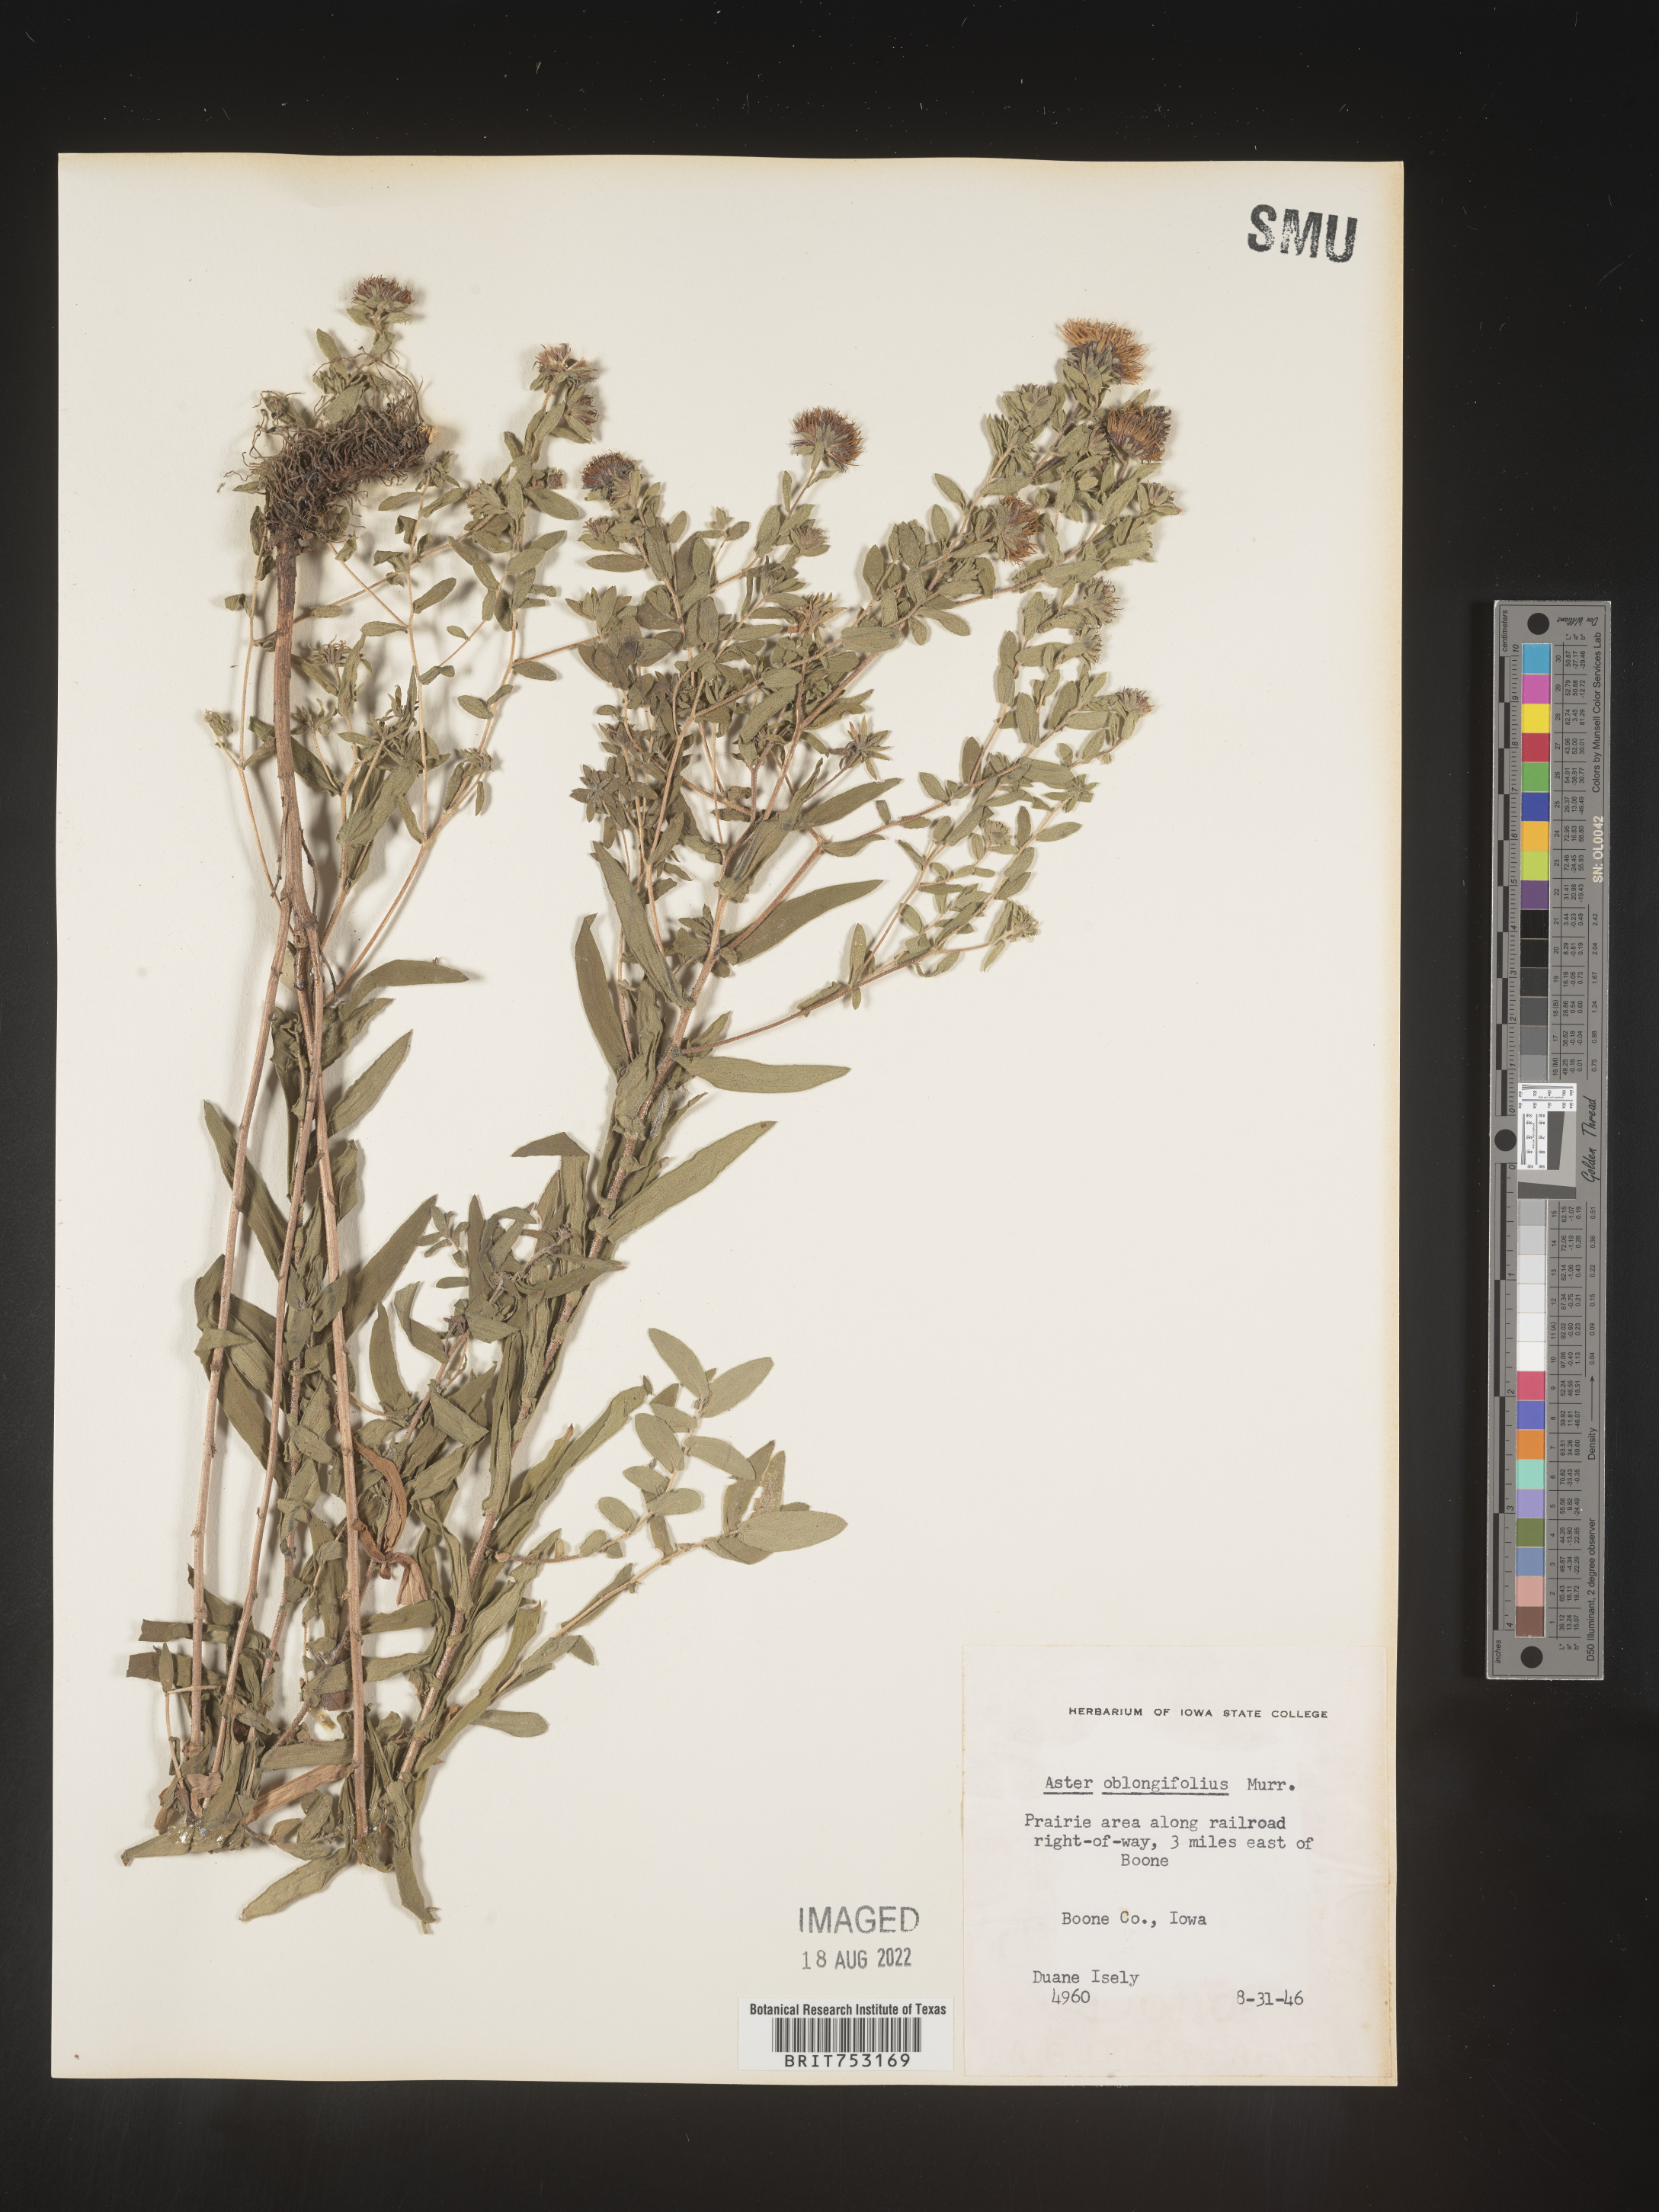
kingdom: Plantae
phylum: Tracheophyta
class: Magnoliopsida
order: Asterales
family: Asteraceae
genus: Symphyotrichum
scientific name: Symphyotrichum oblongifolium
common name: Aromatic aster
